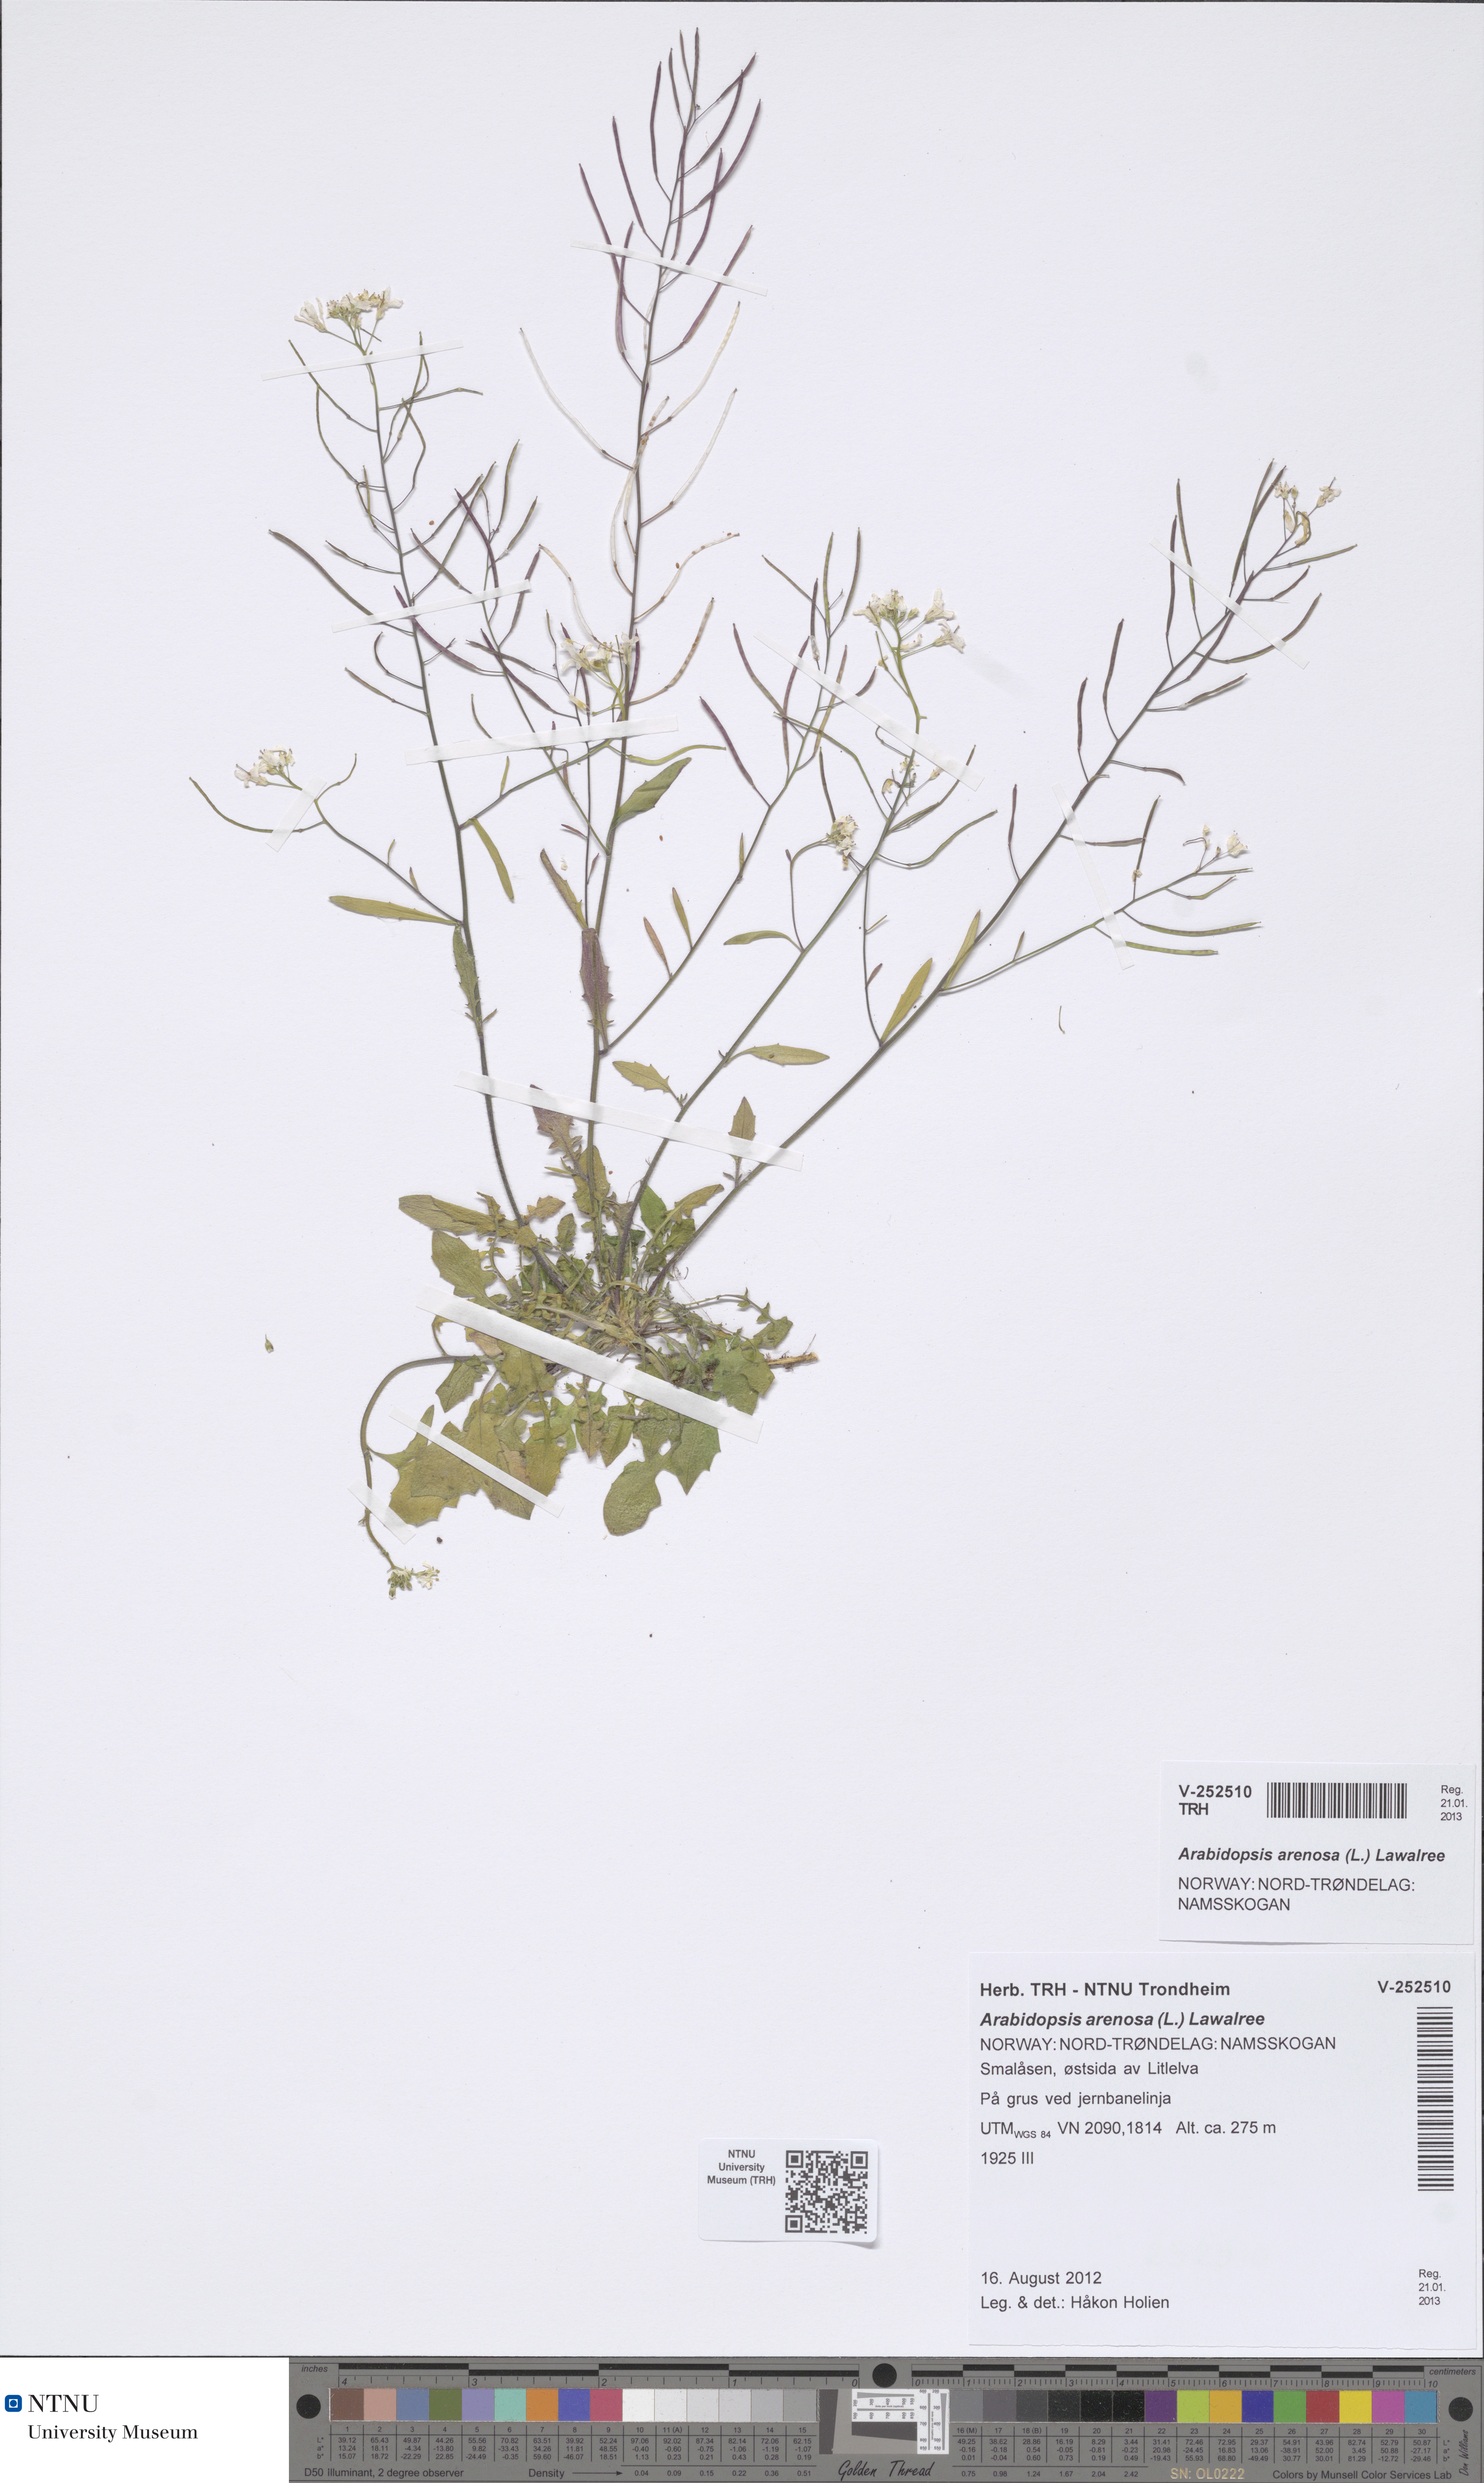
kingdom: Plantae
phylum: Tracheophyta
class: Magnoliopsida
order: Brassicales
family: Brassicaceae
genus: Arabidopsis
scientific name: Arabidopsis arenosa
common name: Sand rock-cress
